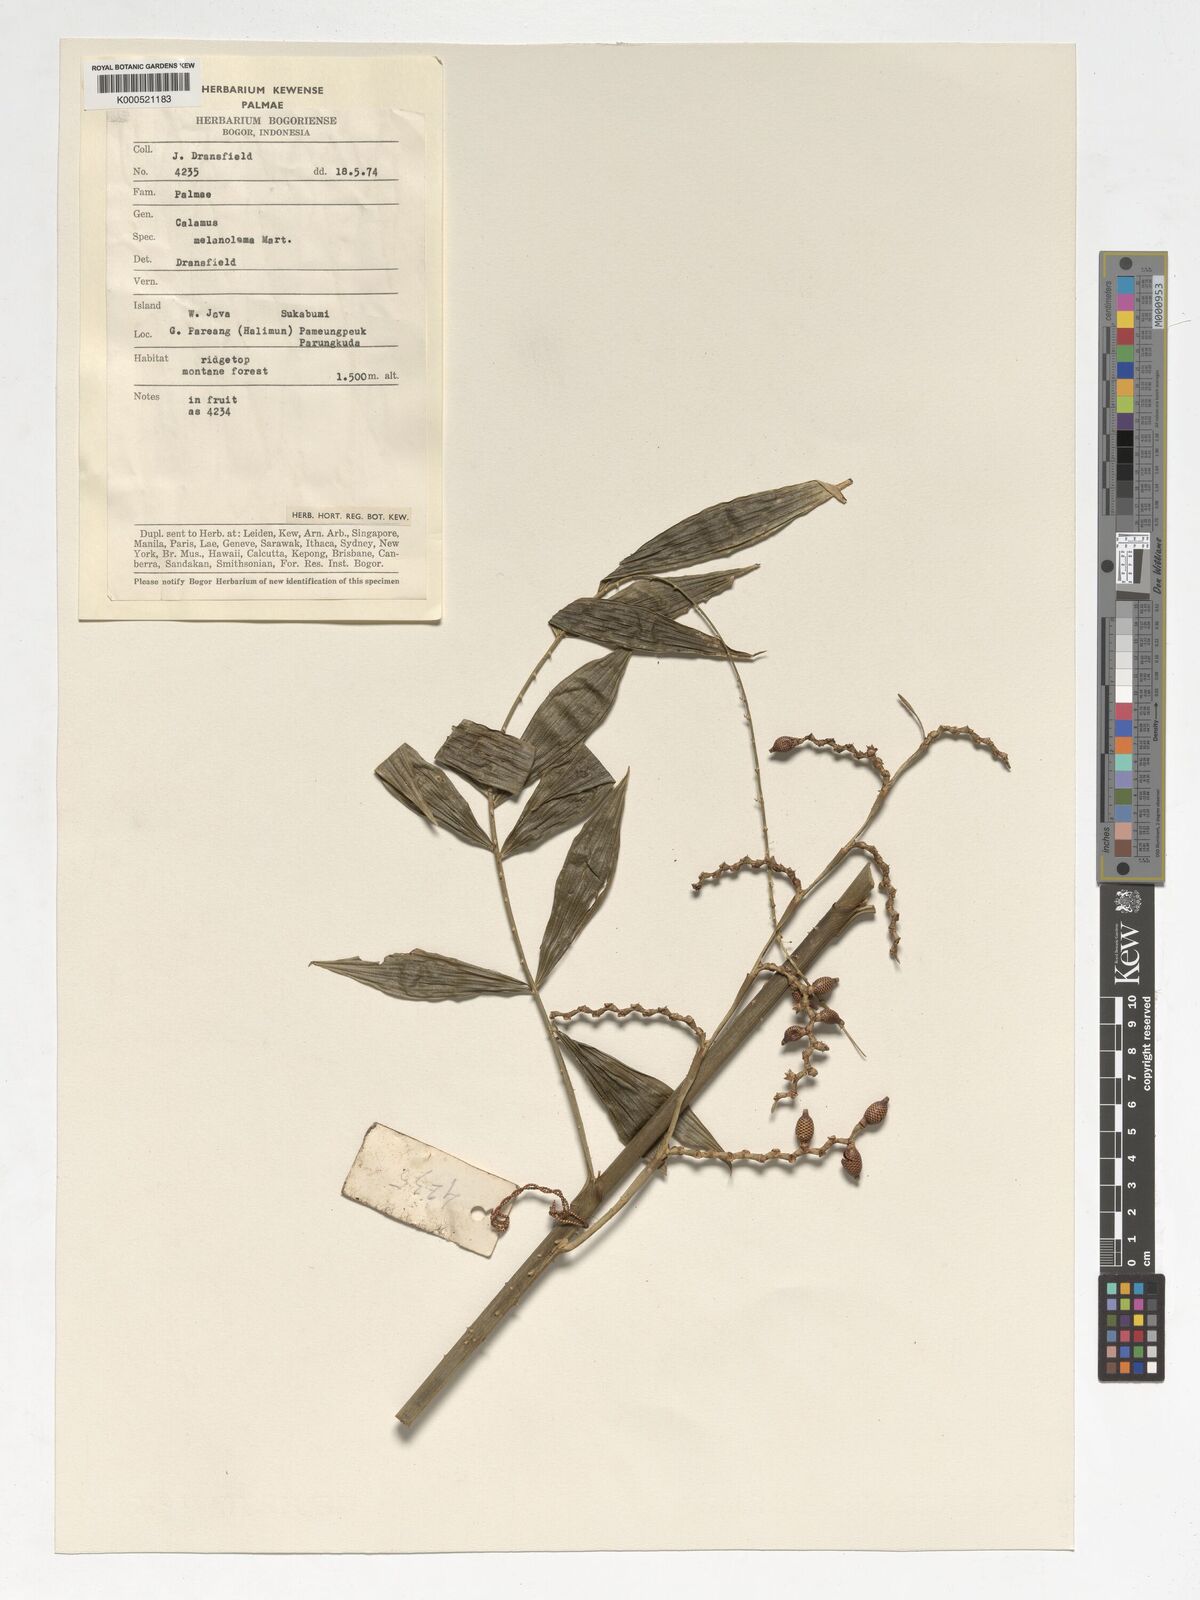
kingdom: Plantae
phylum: Tracheophyta
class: Liliopsida
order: Arecales
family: Arecaceae
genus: Calamus
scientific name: Calamus melanoloma
